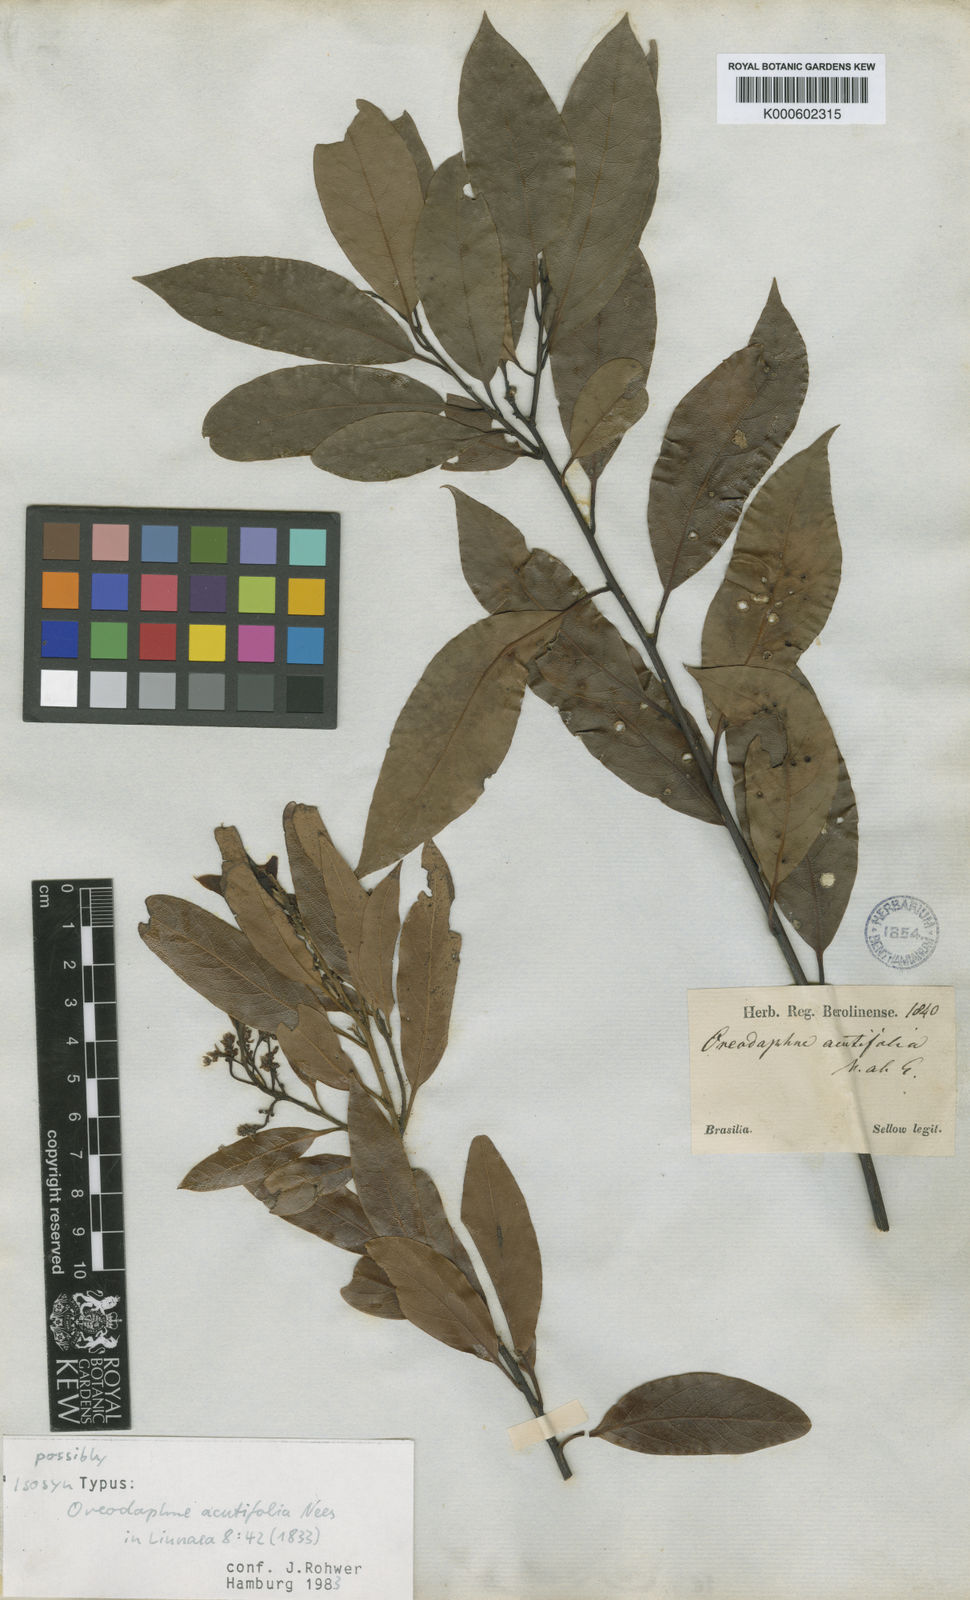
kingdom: Plantae
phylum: Tracheophyta
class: Magnoliopsida
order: Laurales
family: Lauraceae
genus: Ocotea
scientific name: Ocotea acutifolia
